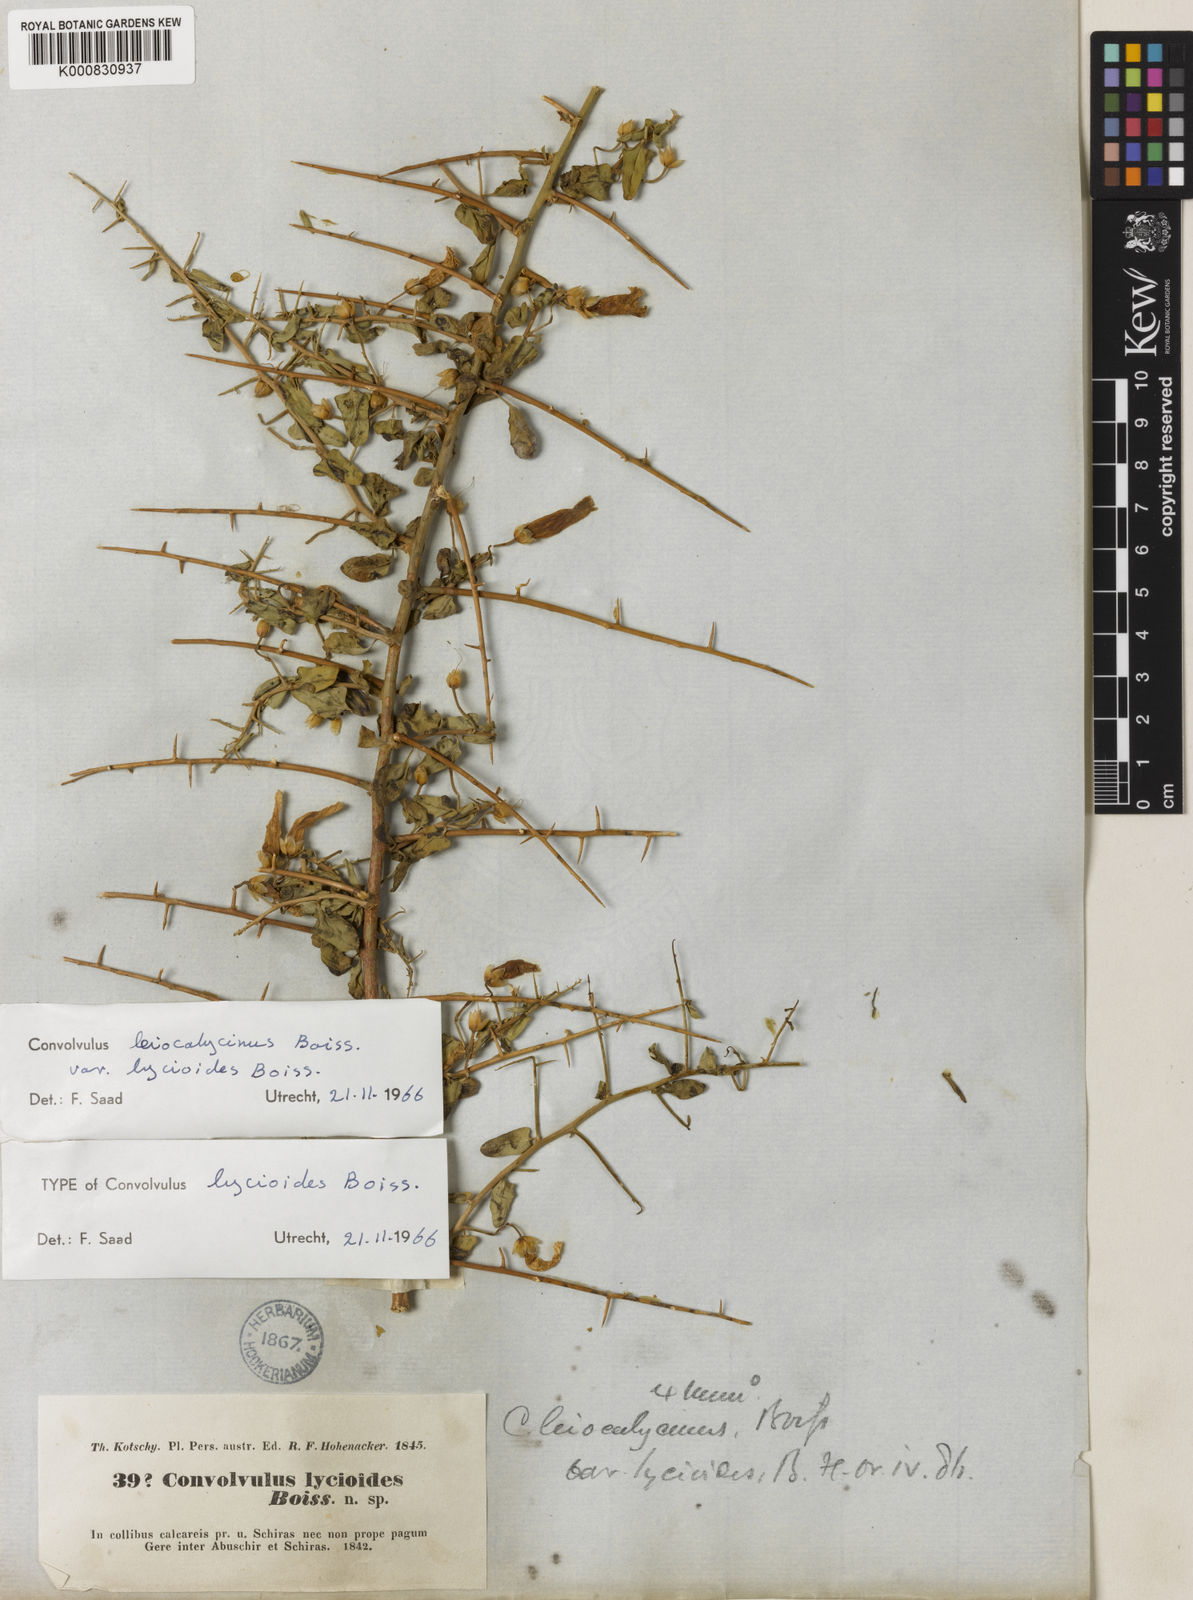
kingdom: Plantae
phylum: Tracheophyta
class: Magnoliopsida
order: Solanales
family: Convolvulaceae
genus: Convolvulus
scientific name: Convolvulus leiocalycinus
